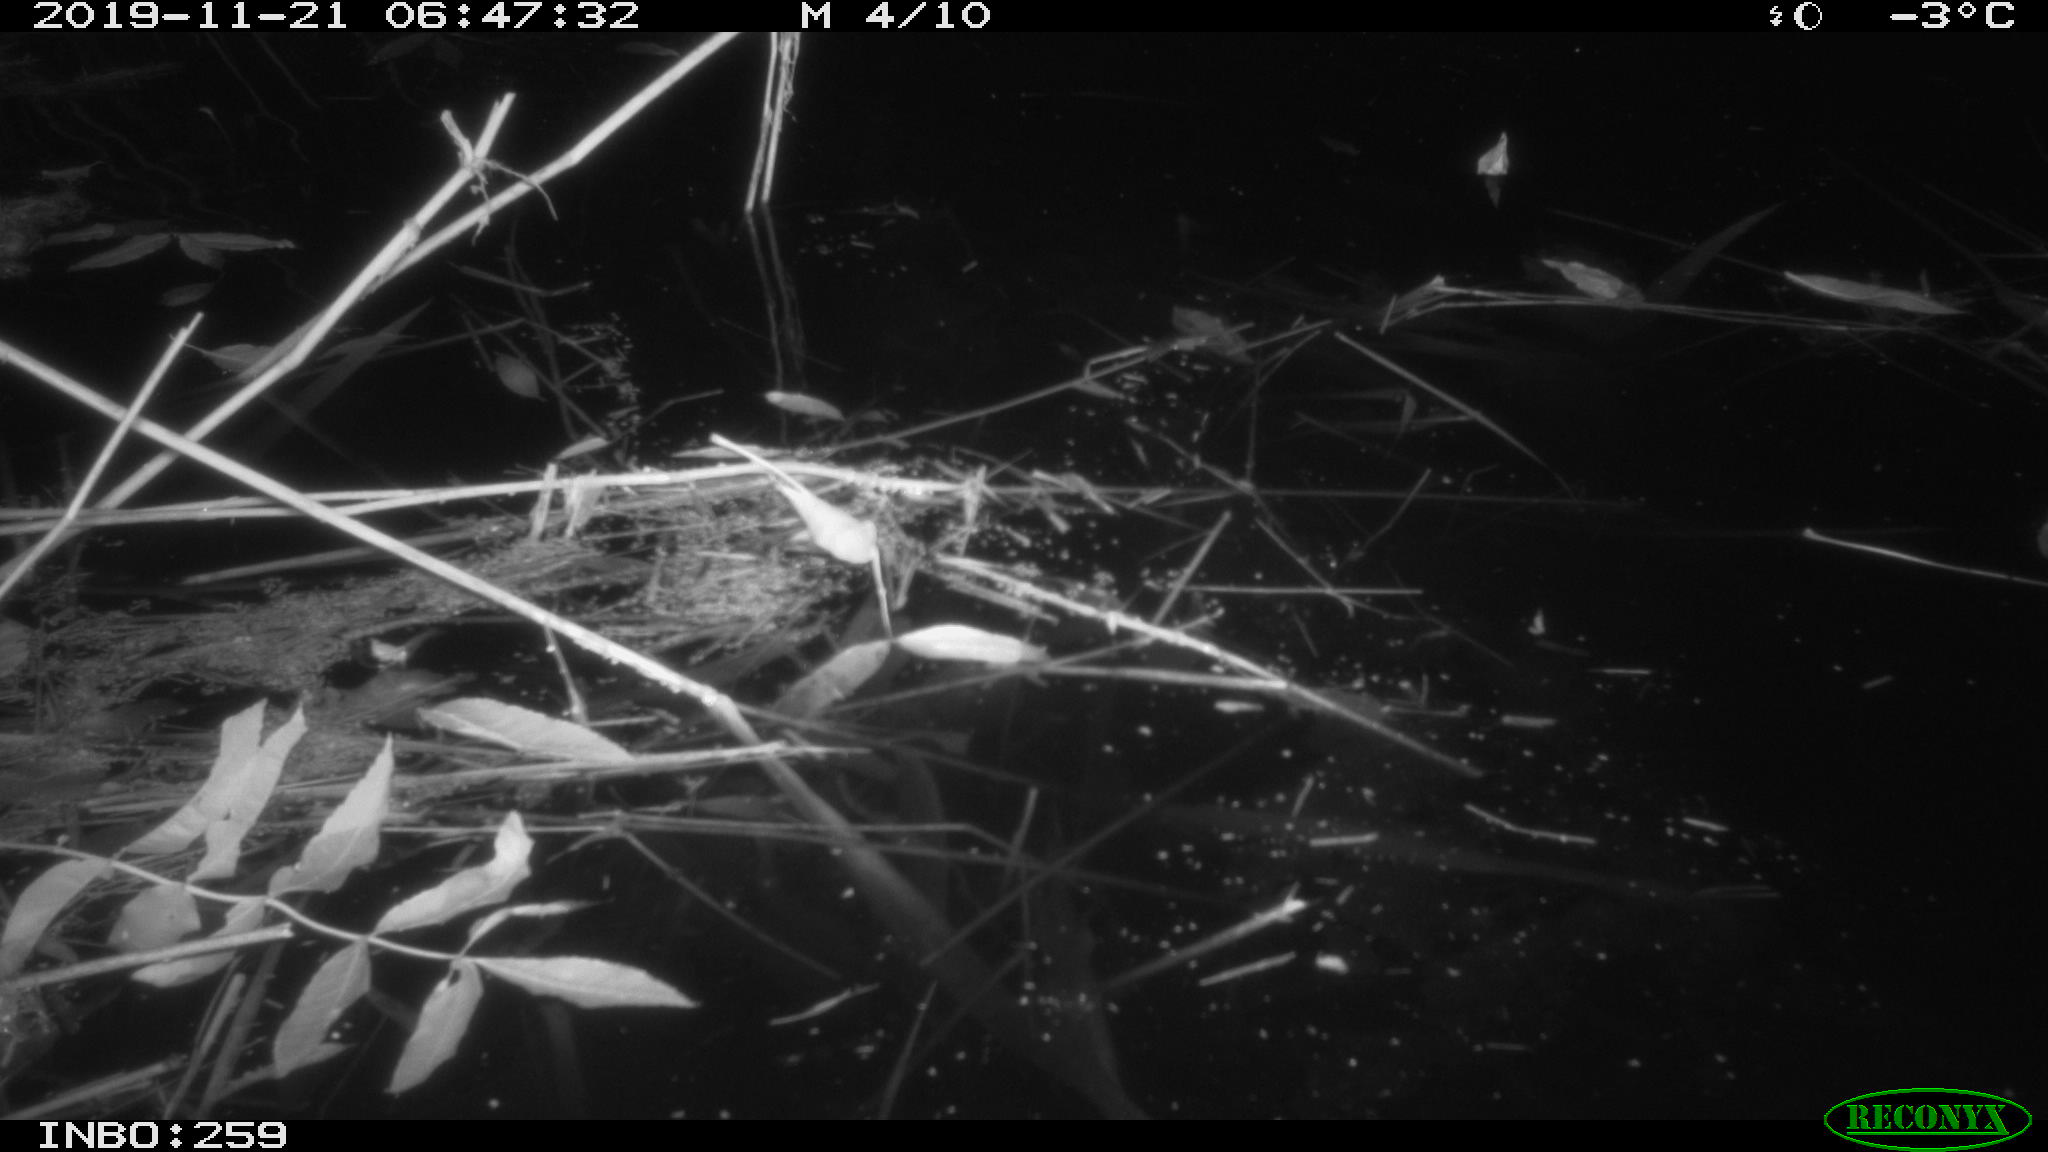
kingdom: Animalia
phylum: Chordata
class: Mammalia
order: Rodentia
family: Muridae
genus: Rattus
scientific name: Rattus norvegicus
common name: Brown rat
